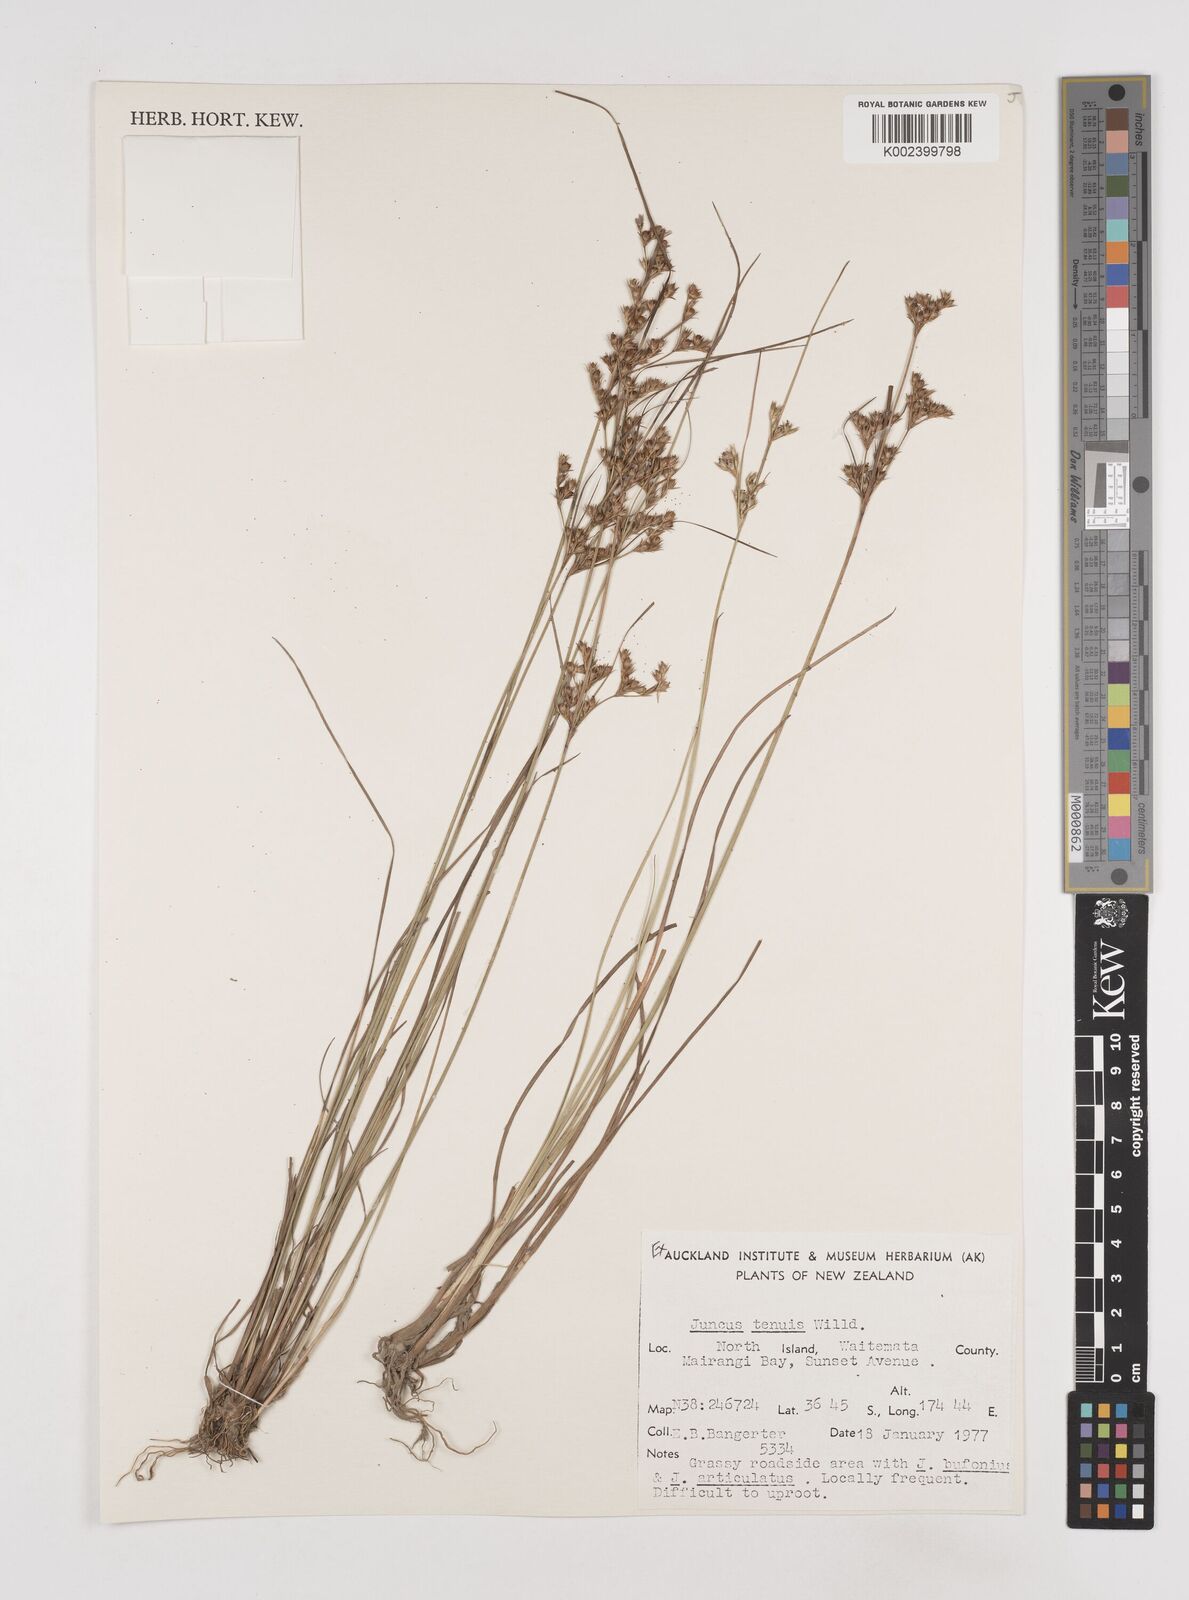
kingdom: Plantae
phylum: Tracheophyta
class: Liliopsida
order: Poales
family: Juncaceae
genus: Juncus
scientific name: Juncus tenuis
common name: Slender rush
